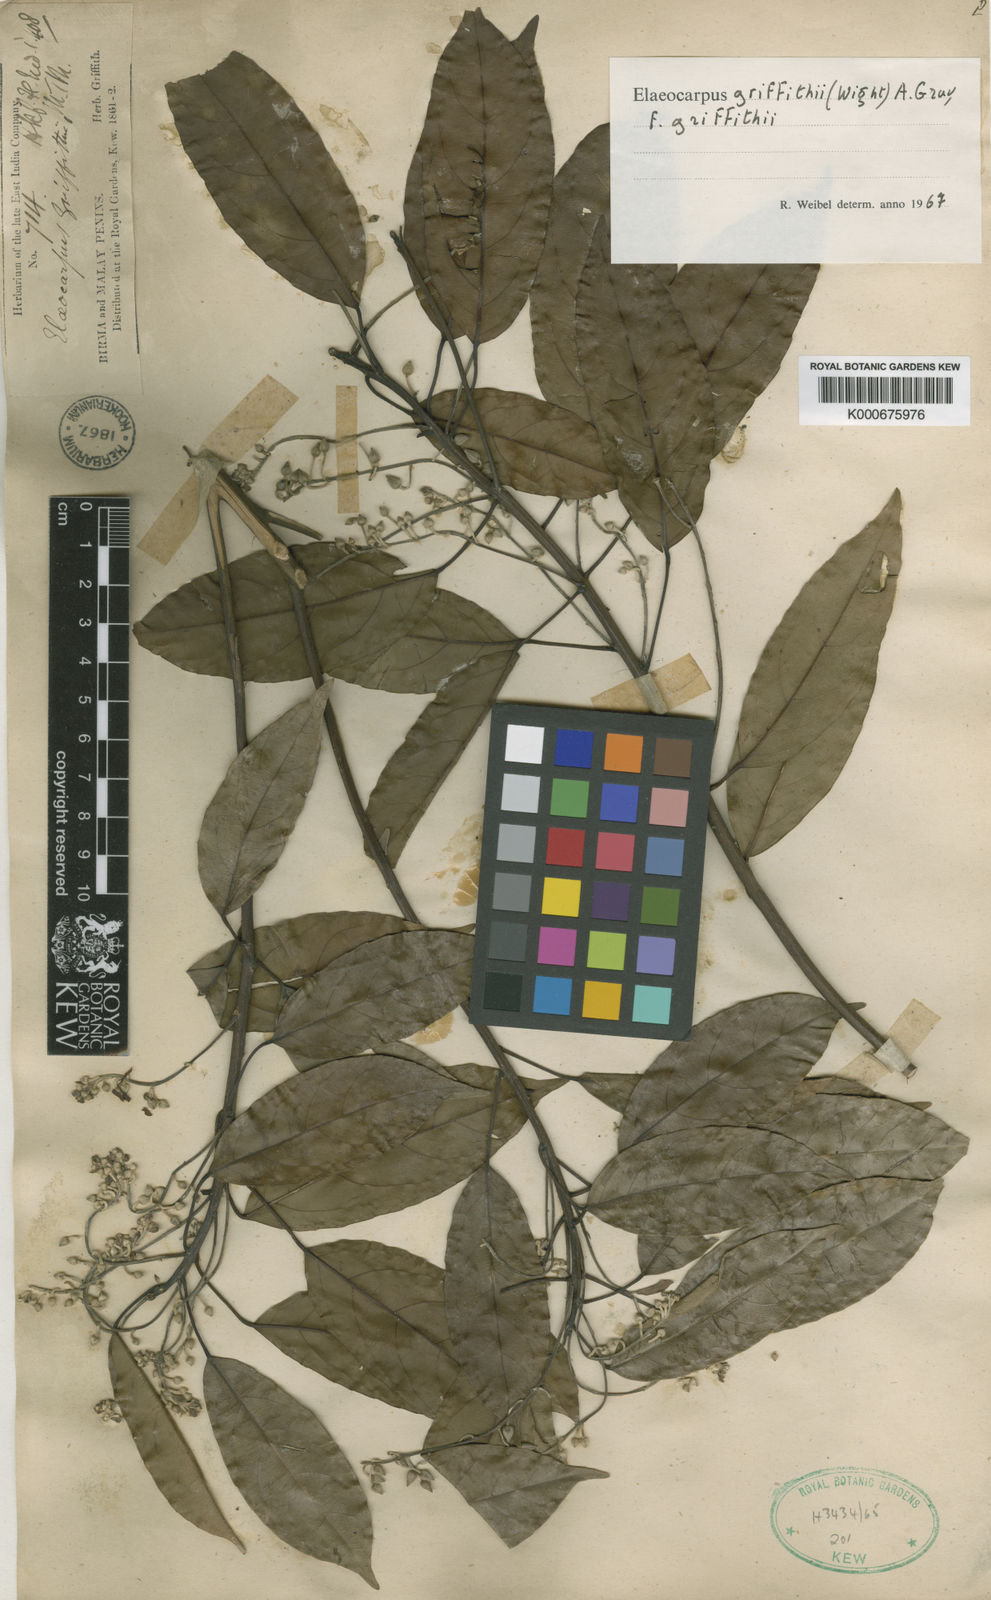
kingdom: Plantae
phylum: Tracheophyta
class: Magnoliopsida
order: Oxalidales
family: Elaeocarpaceae
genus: Elaeocarpus
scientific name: Elaeocarpus griffithii
